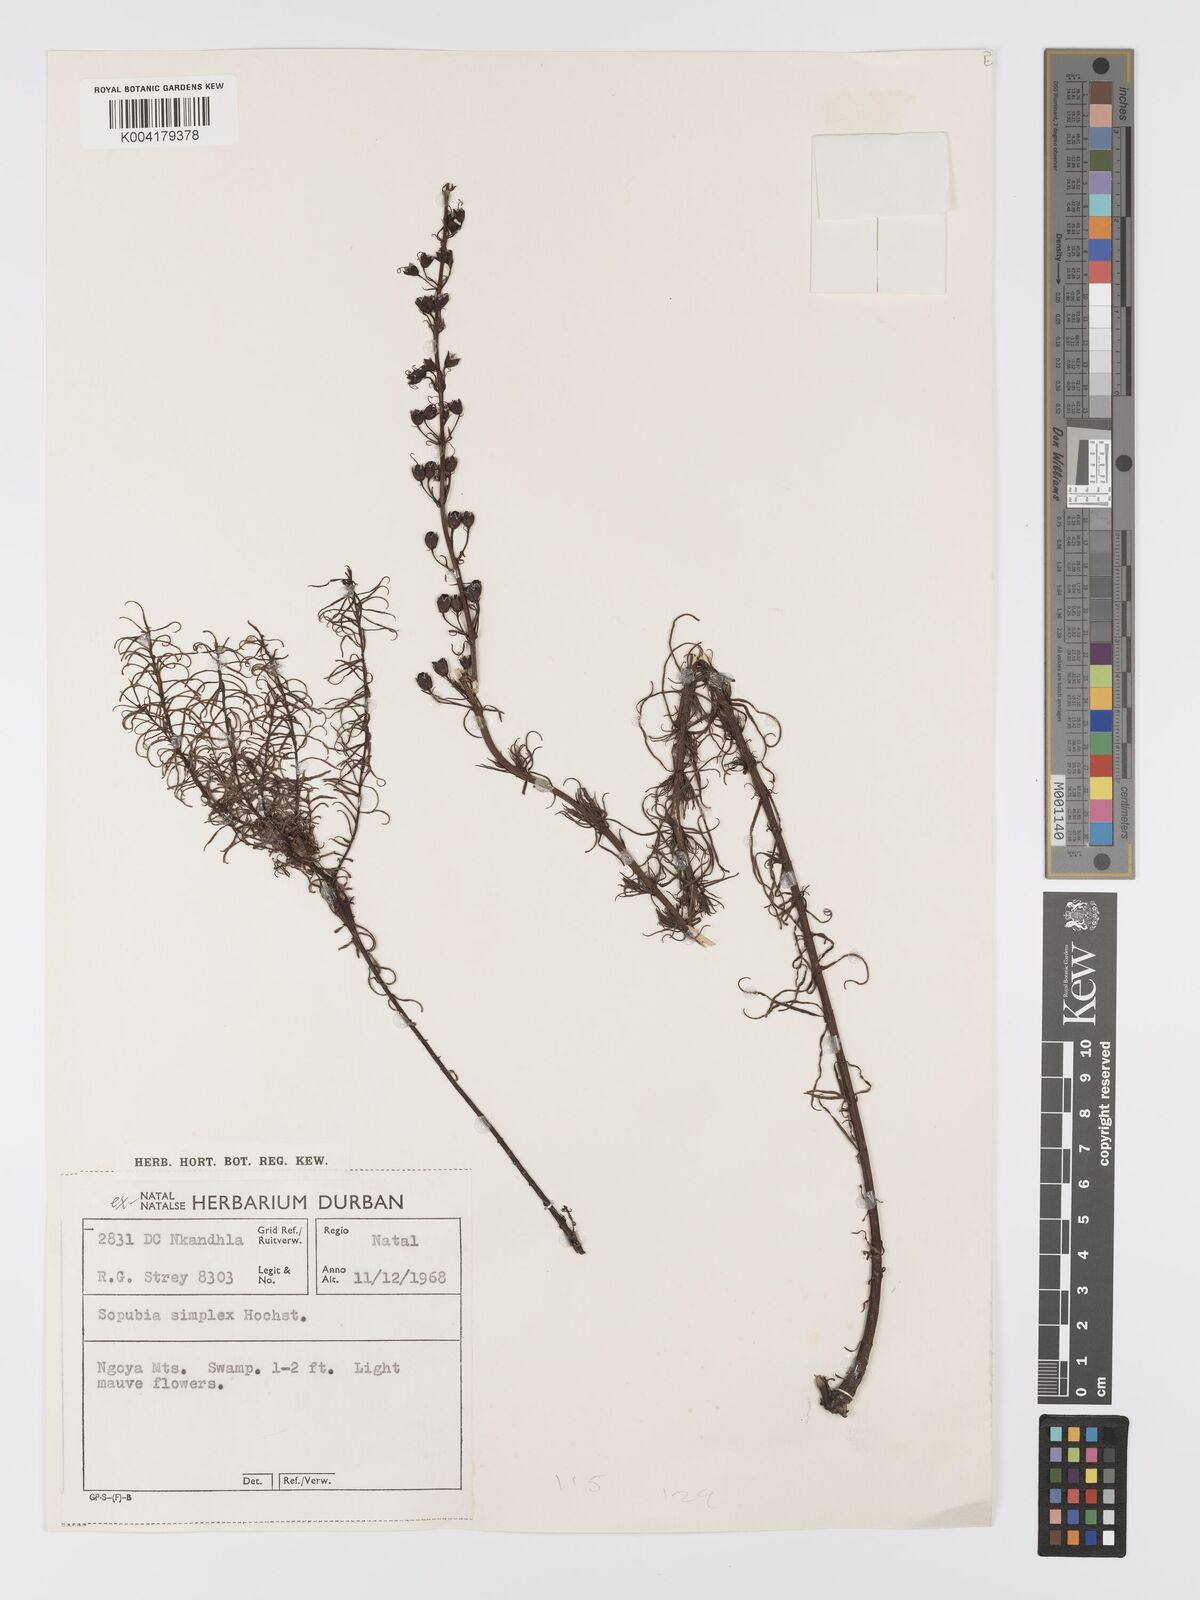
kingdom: Plantae
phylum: Tracheophyta
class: Magnoliopsida
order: Lamiales
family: Orobanchaceae
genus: Sopubia
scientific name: Sopubia simplex
